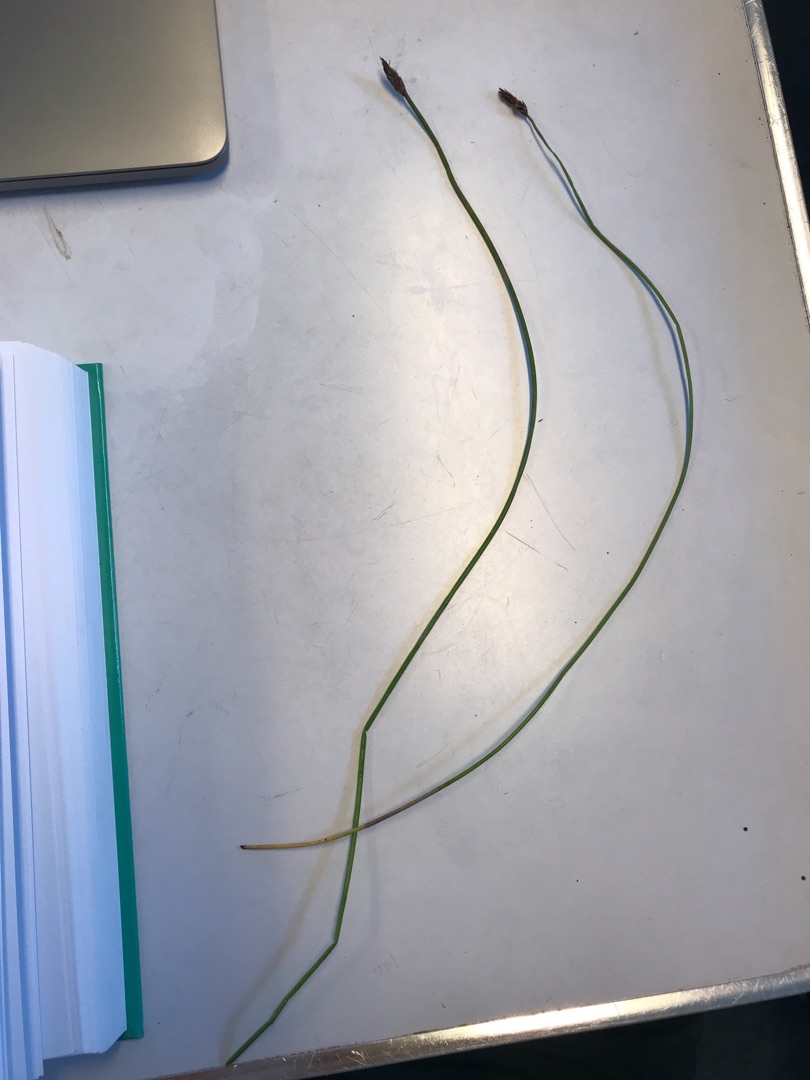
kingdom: Plantae
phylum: Tracheophyta
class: Liliopsida
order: Poales
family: Cyperaceae
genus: Eleocharis
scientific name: Eleocharis palustris
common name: Almindelig sumpstrå
